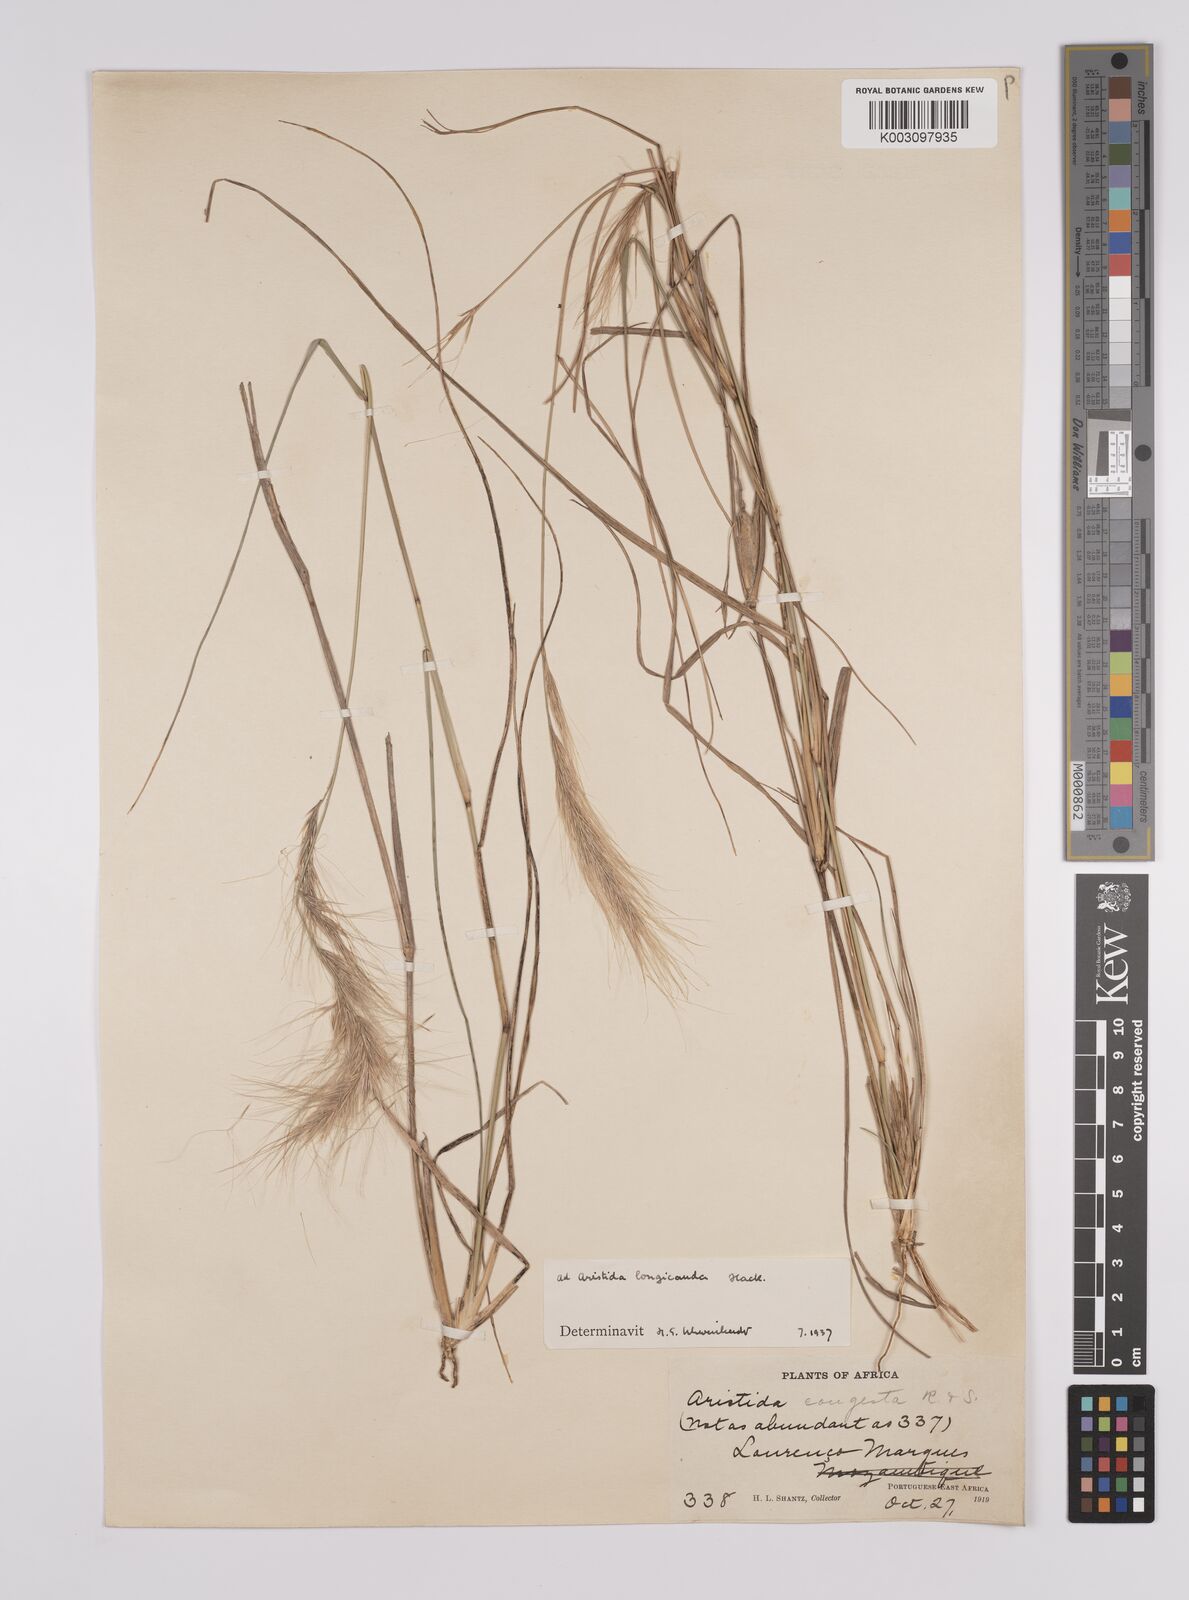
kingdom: Plantae
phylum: Tracheophyta
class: Liliopsida
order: Poales
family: Poaceae
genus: Aristida
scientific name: Aristida congesta
